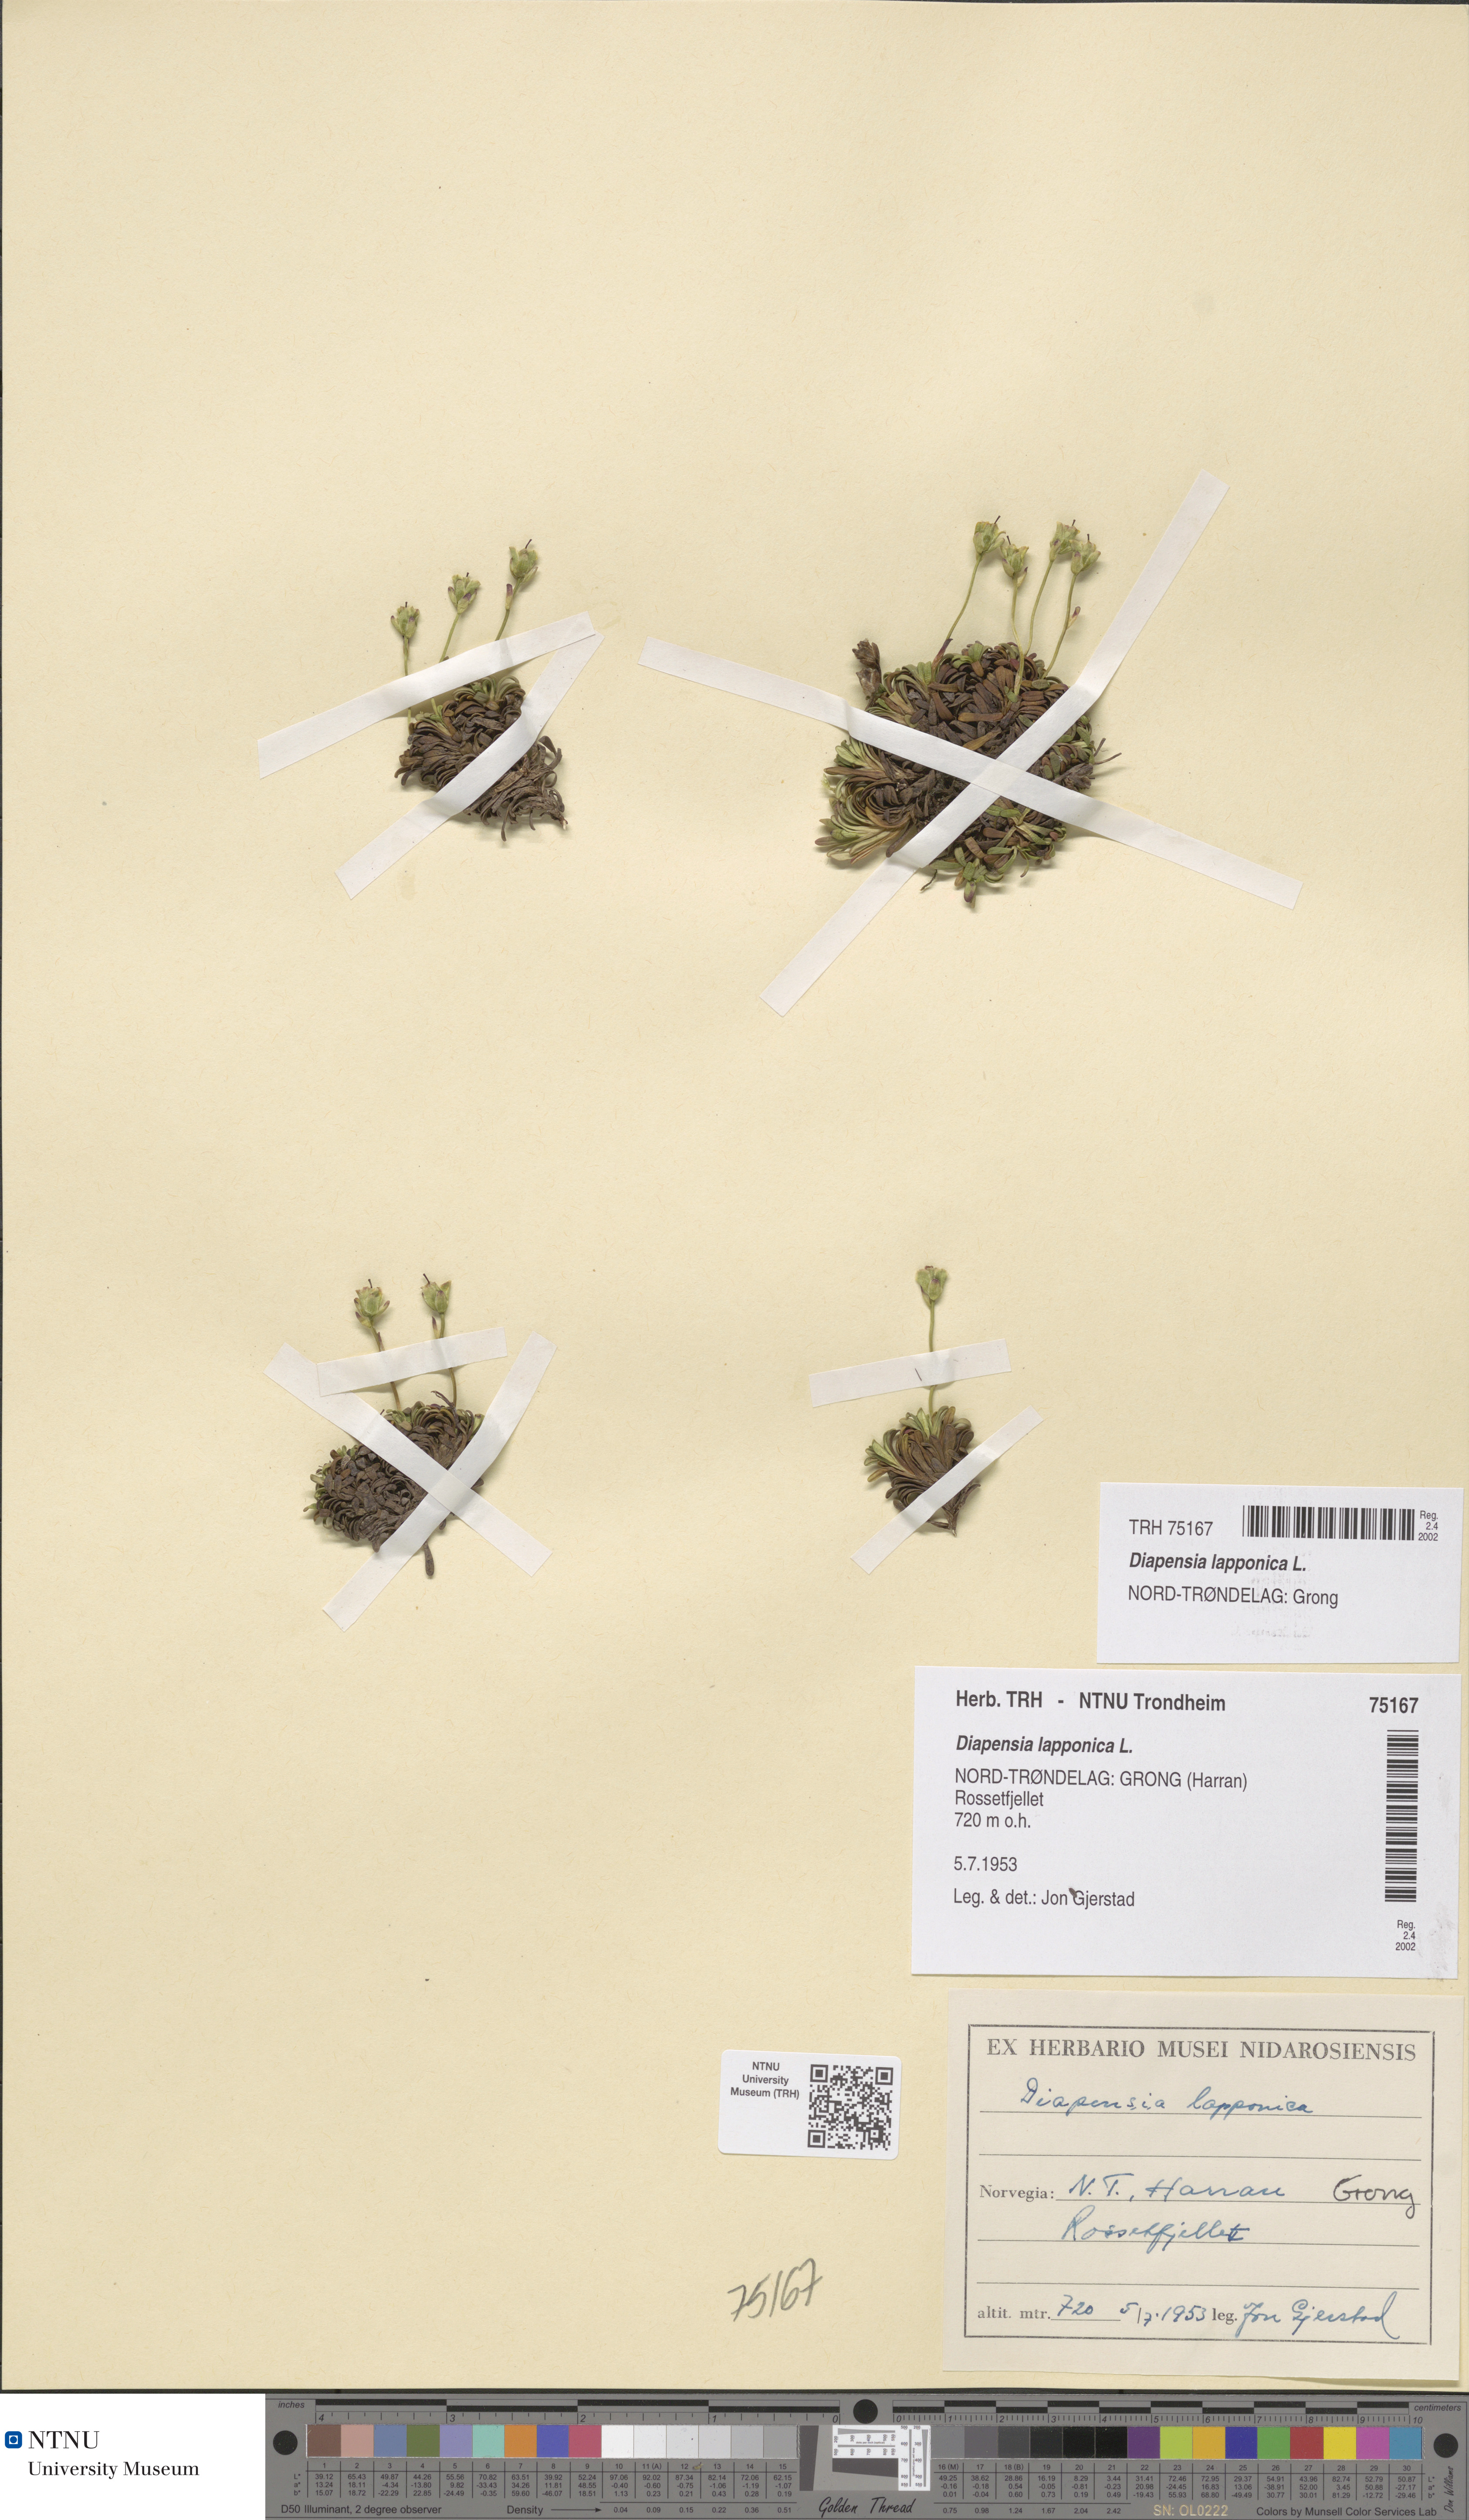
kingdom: Plantae
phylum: Tracheophyta
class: Magnoliopsida
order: Ericales
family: Diapensiaceae
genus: Diapensia
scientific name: Diapensia lapponica
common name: Diapensia
